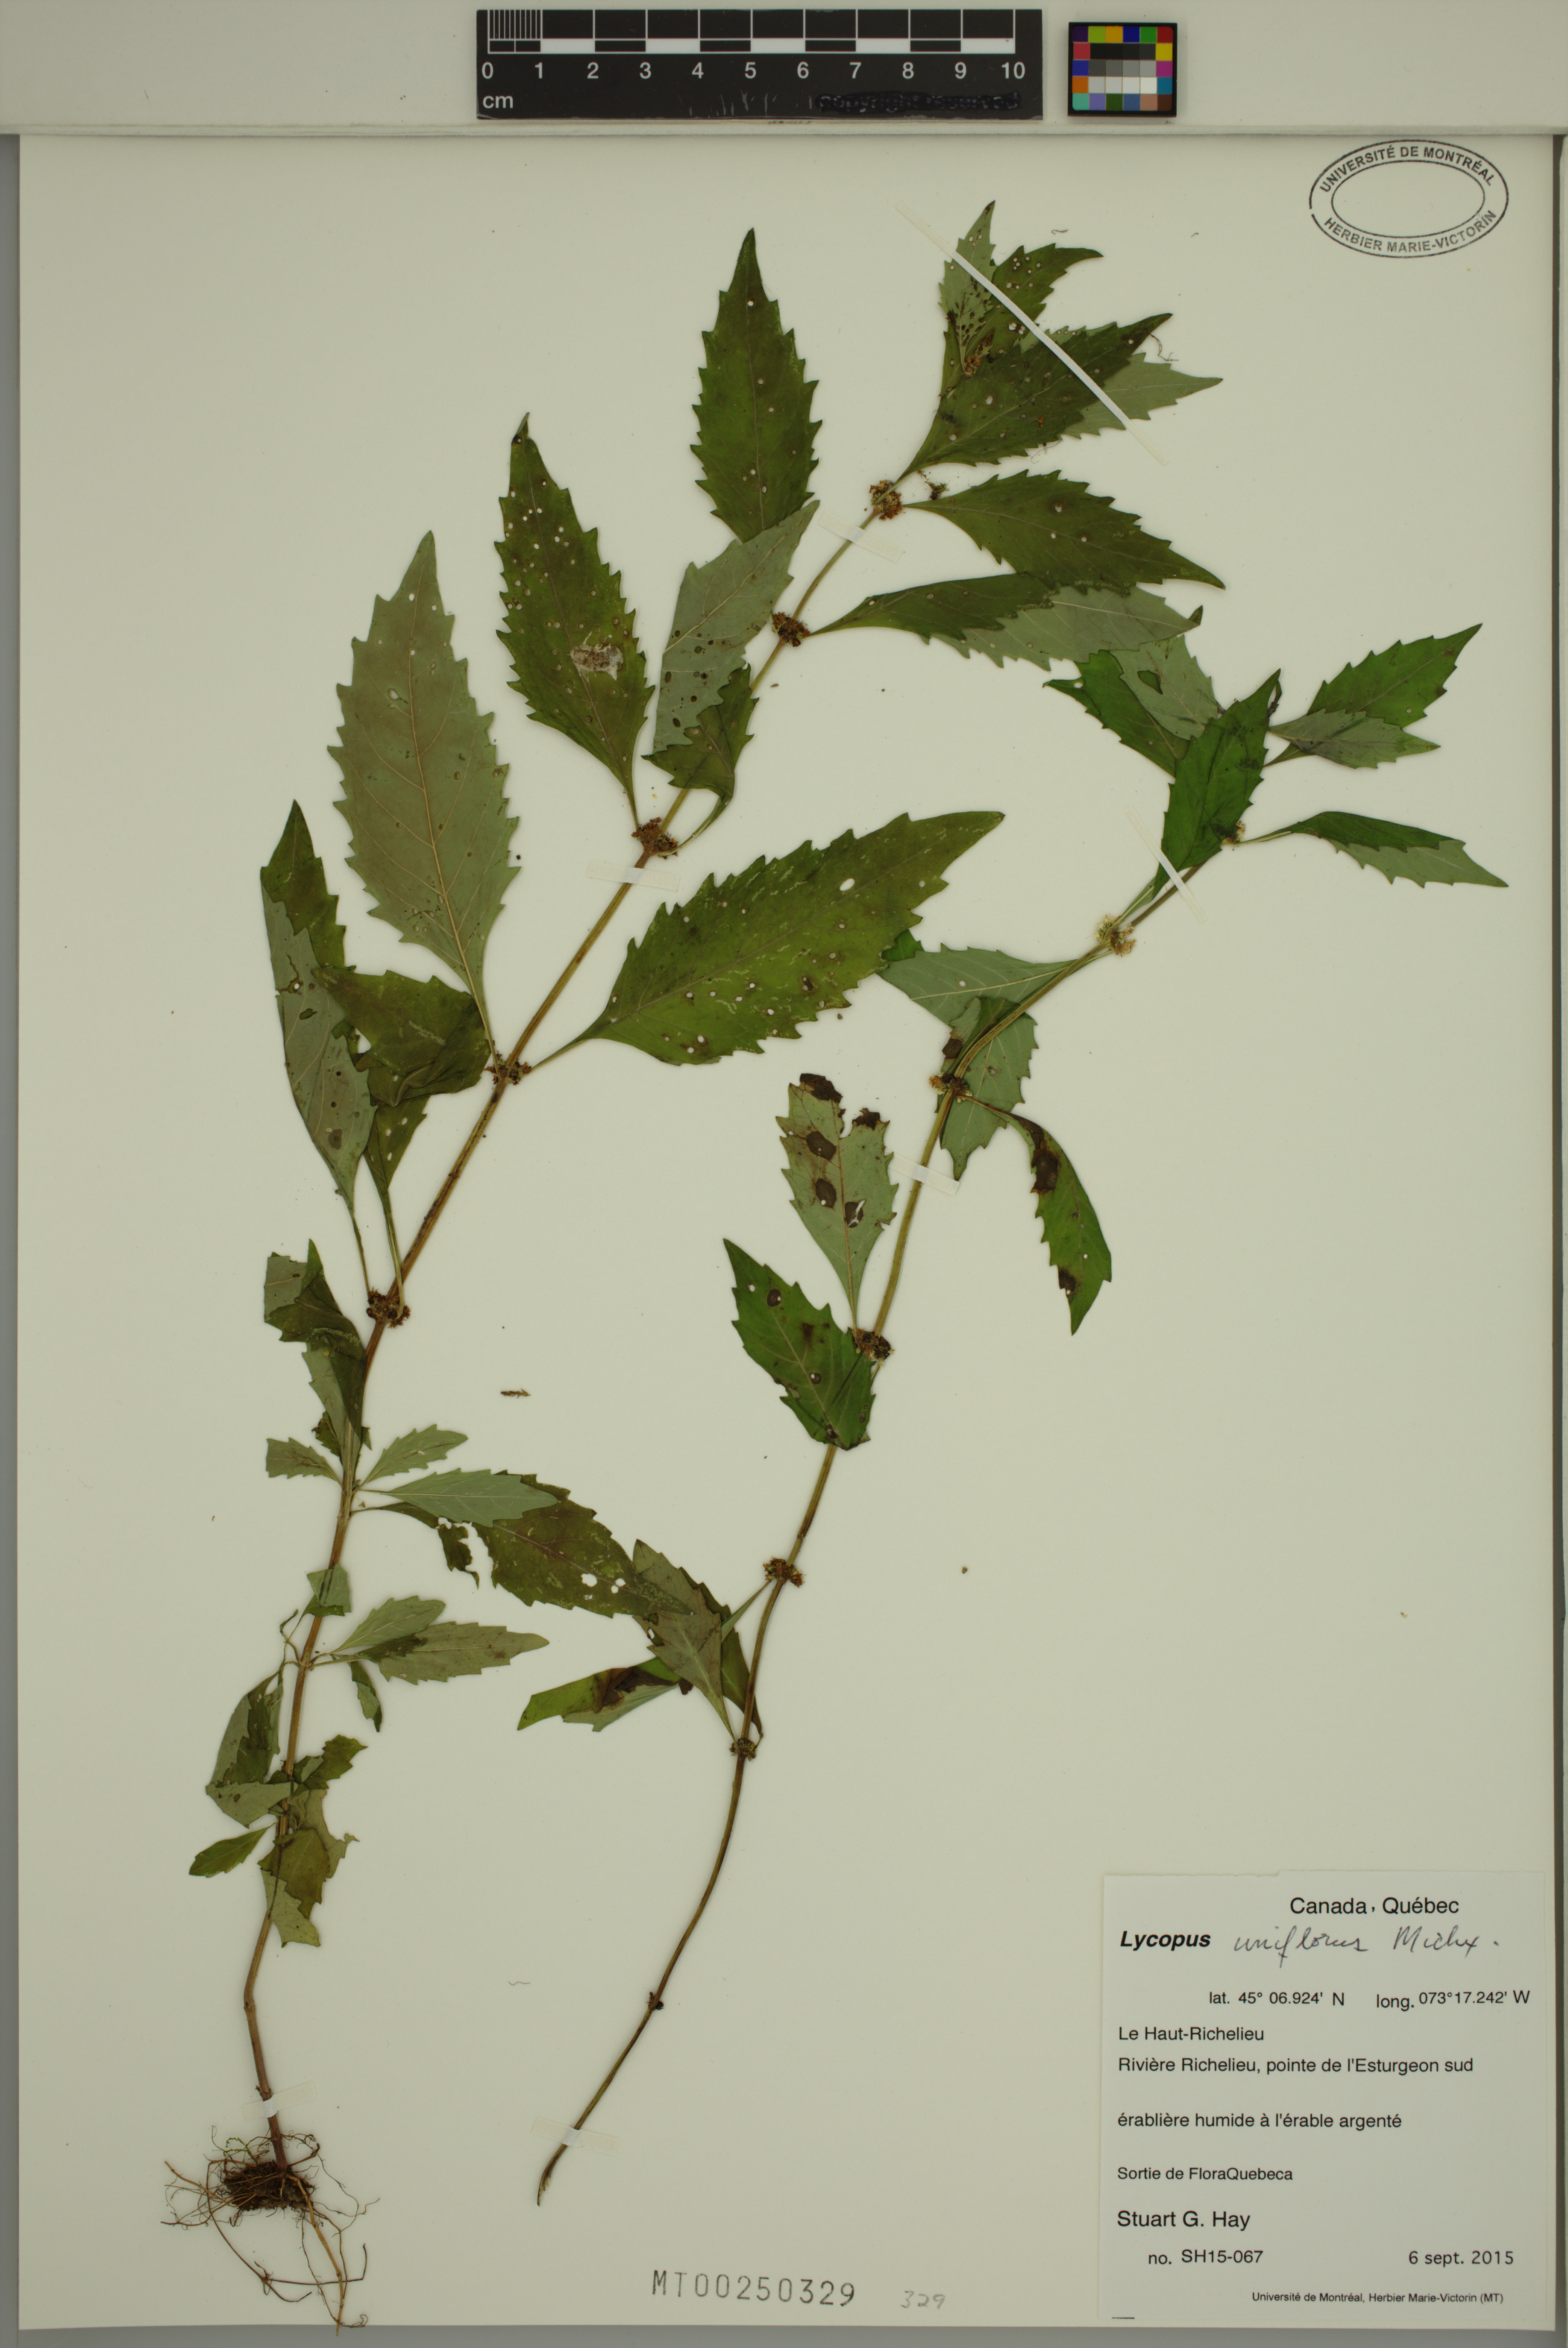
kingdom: Plantae
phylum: Tracheophyta
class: Magnoliopsida
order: Lamiales
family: Lamiaceae
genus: Lycopus
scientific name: Lycopus uniflorus
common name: Northern bugleweed
